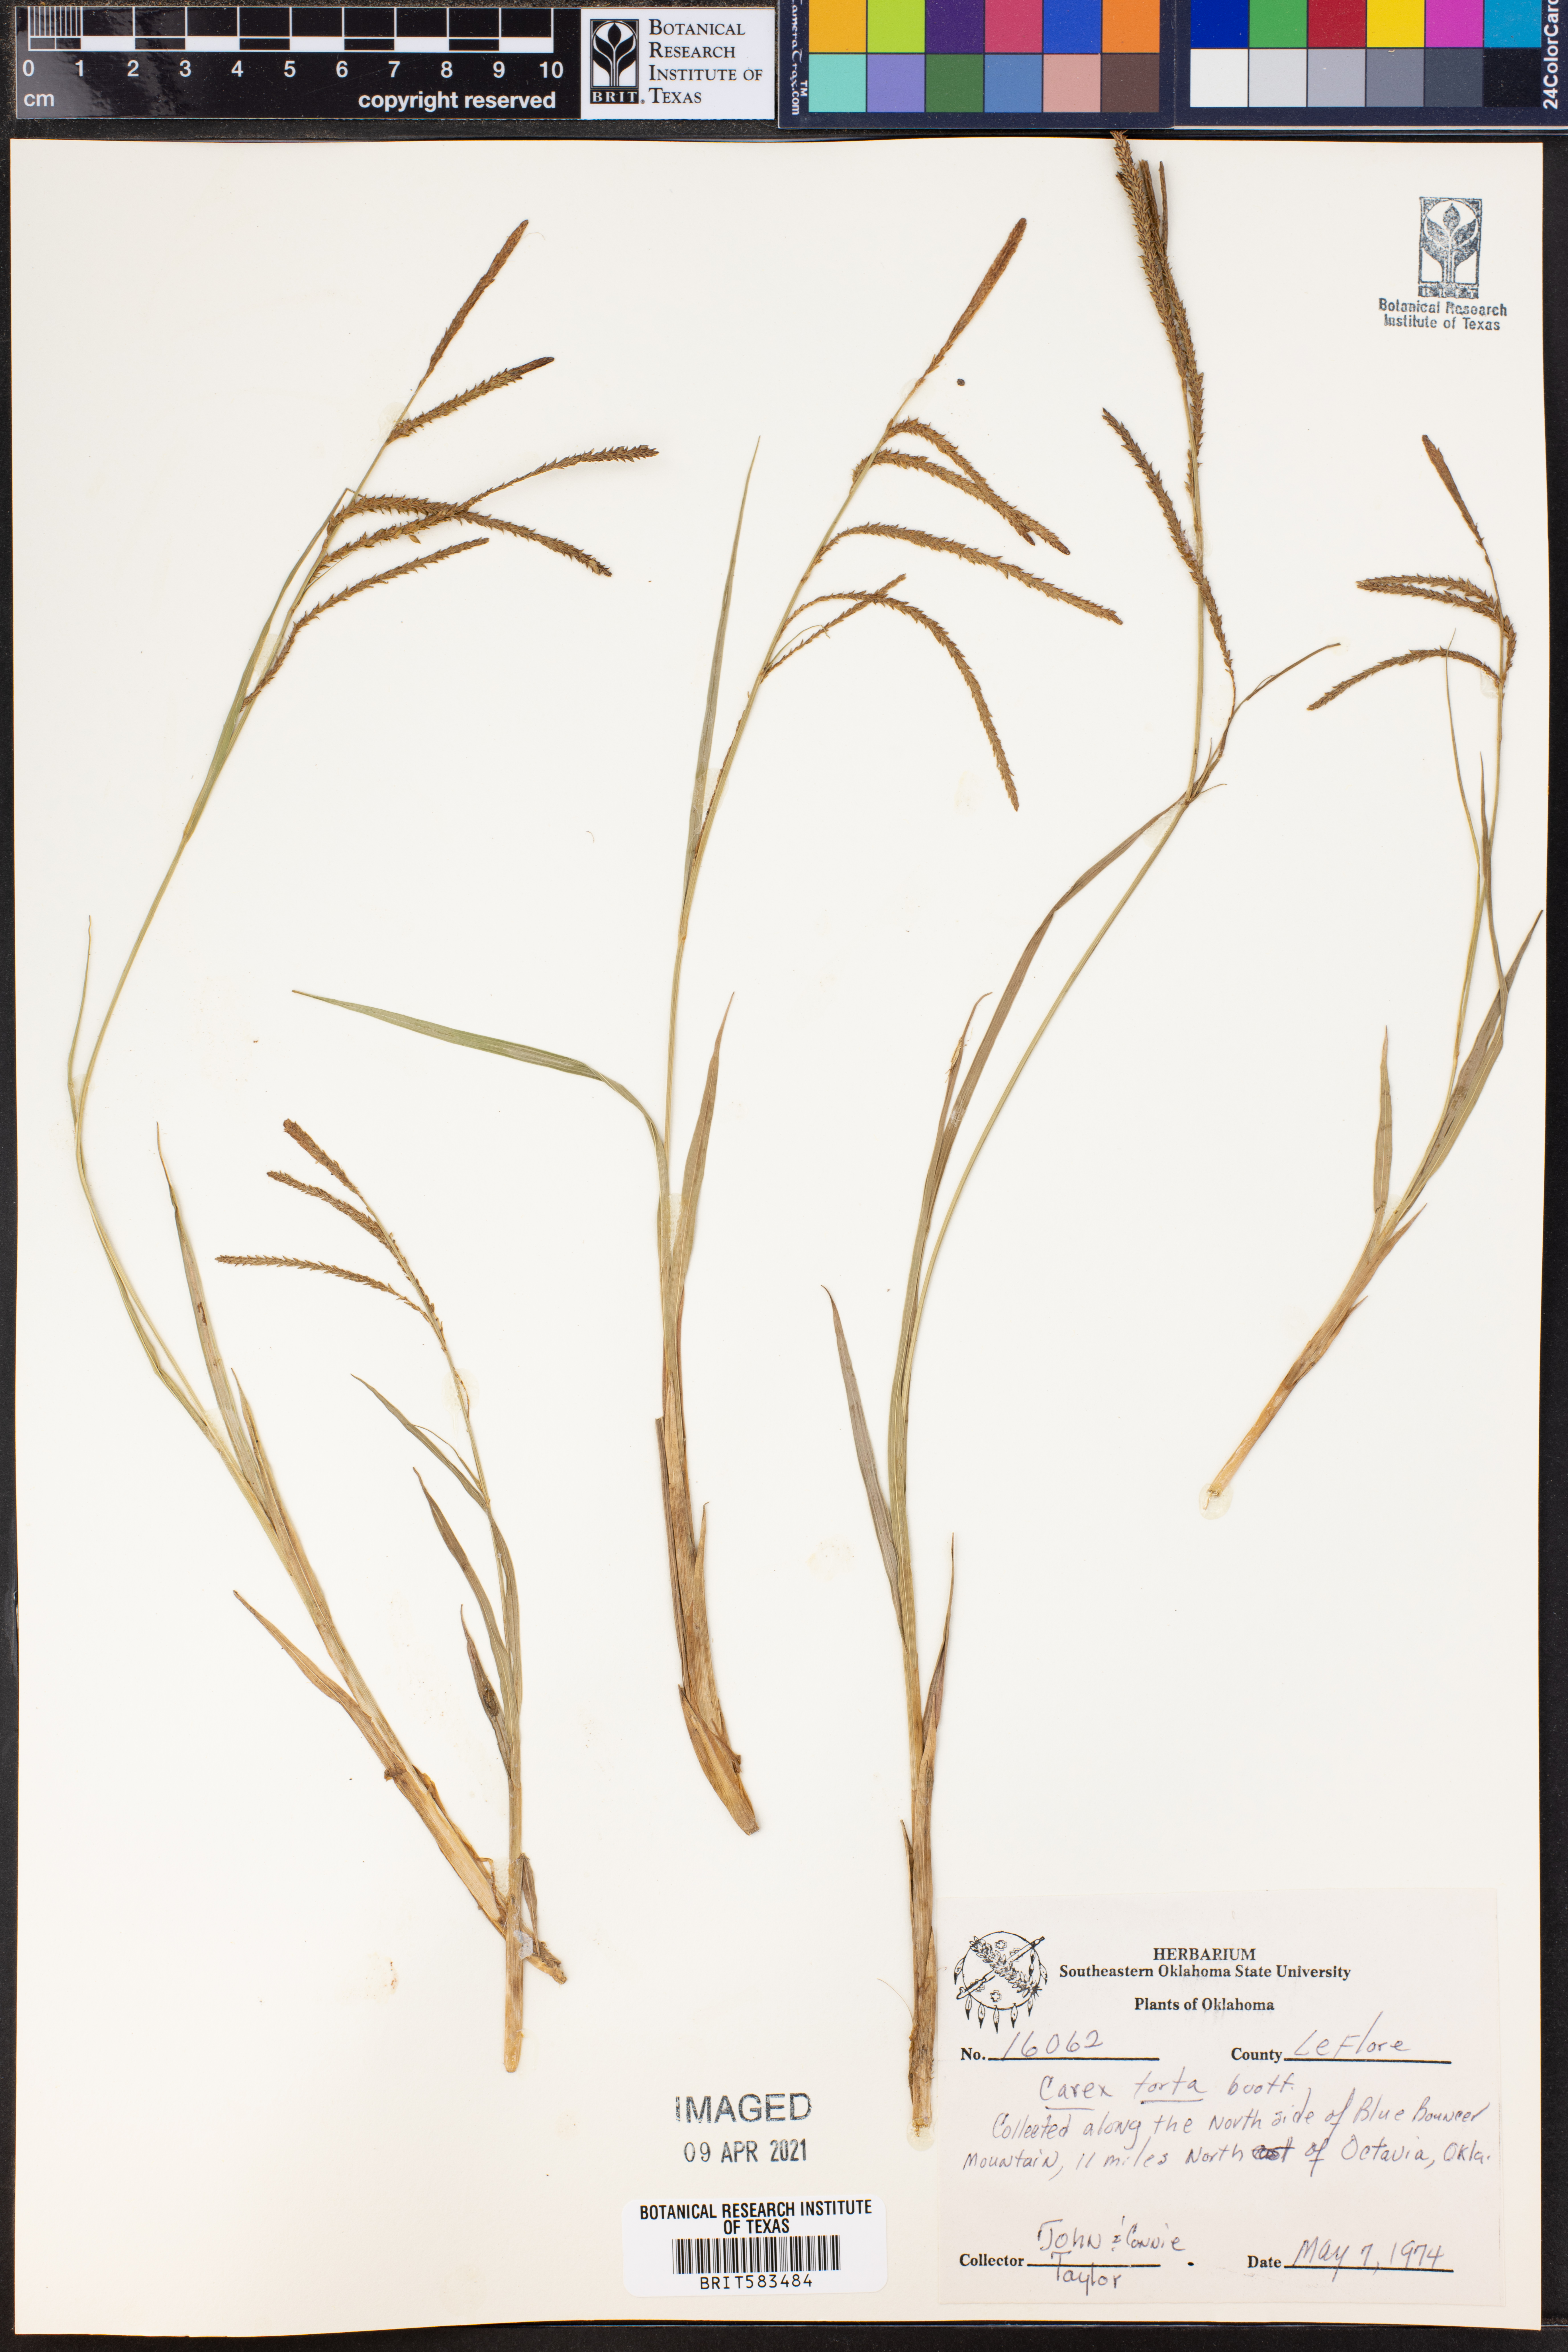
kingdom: Plantae
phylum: Tracheophyta
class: Liliopsida
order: Poales
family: Cyperaceae
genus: Carex
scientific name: Carex torta
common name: Twisted sedge
